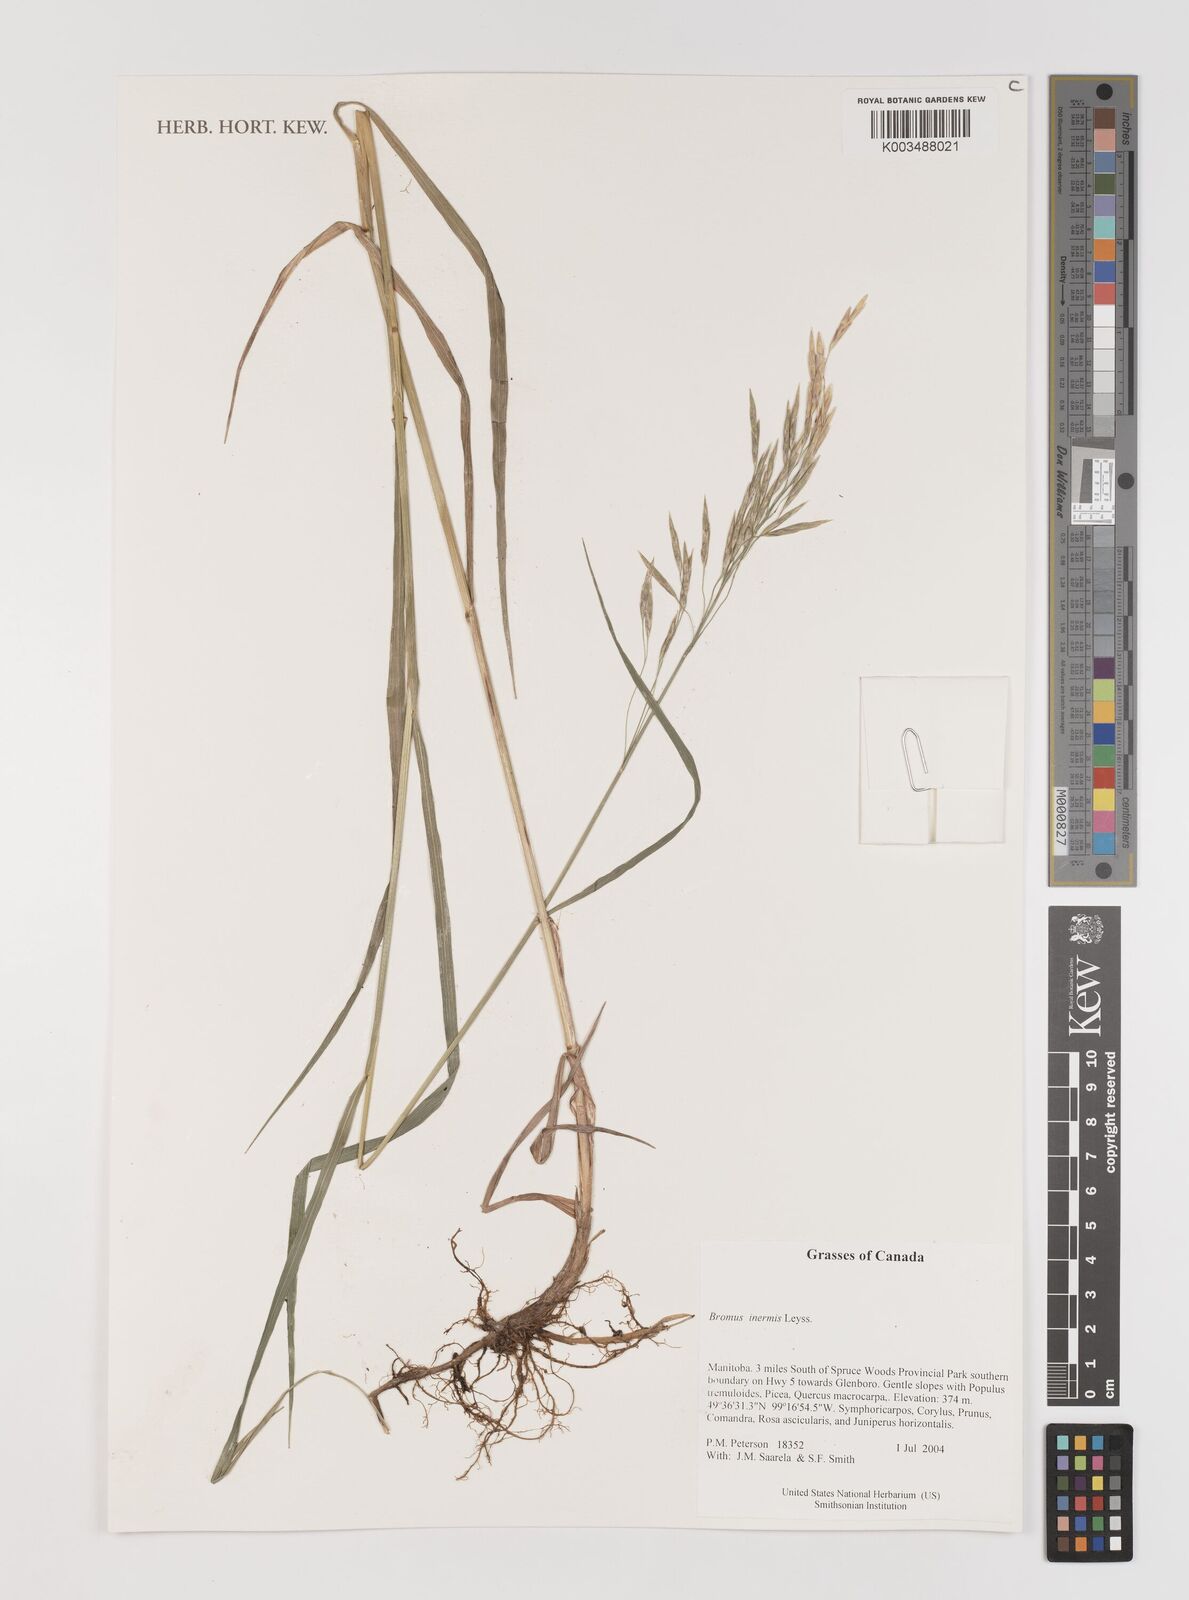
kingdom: Plantae
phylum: Tracheophyta
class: Liliopsida
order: Poales
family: Poaceae
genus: Bromus
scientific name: Bromus inermis
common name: Smooth brome
